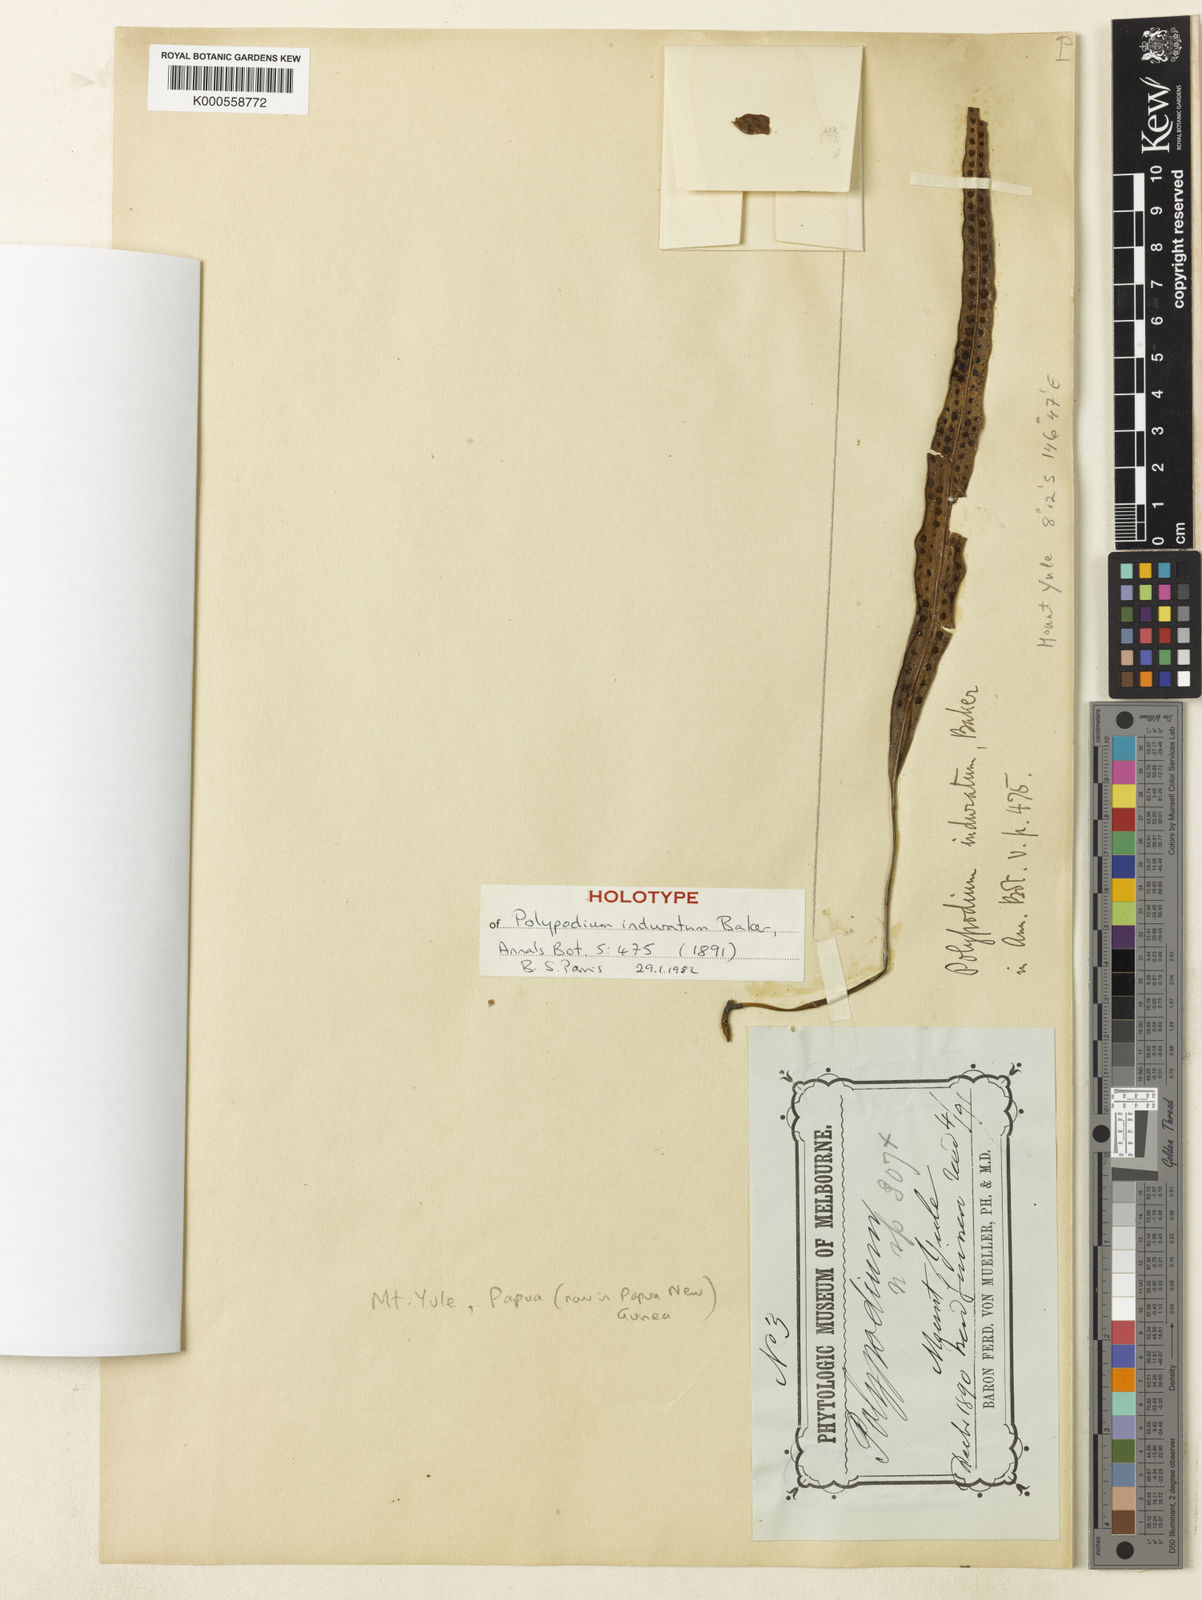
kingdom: Plantae
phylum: Tracheophyta
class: Polypodiopsida
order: Polypodiales
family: Polypodiaceae
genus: Selliguea
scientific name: Selliguea enervis
